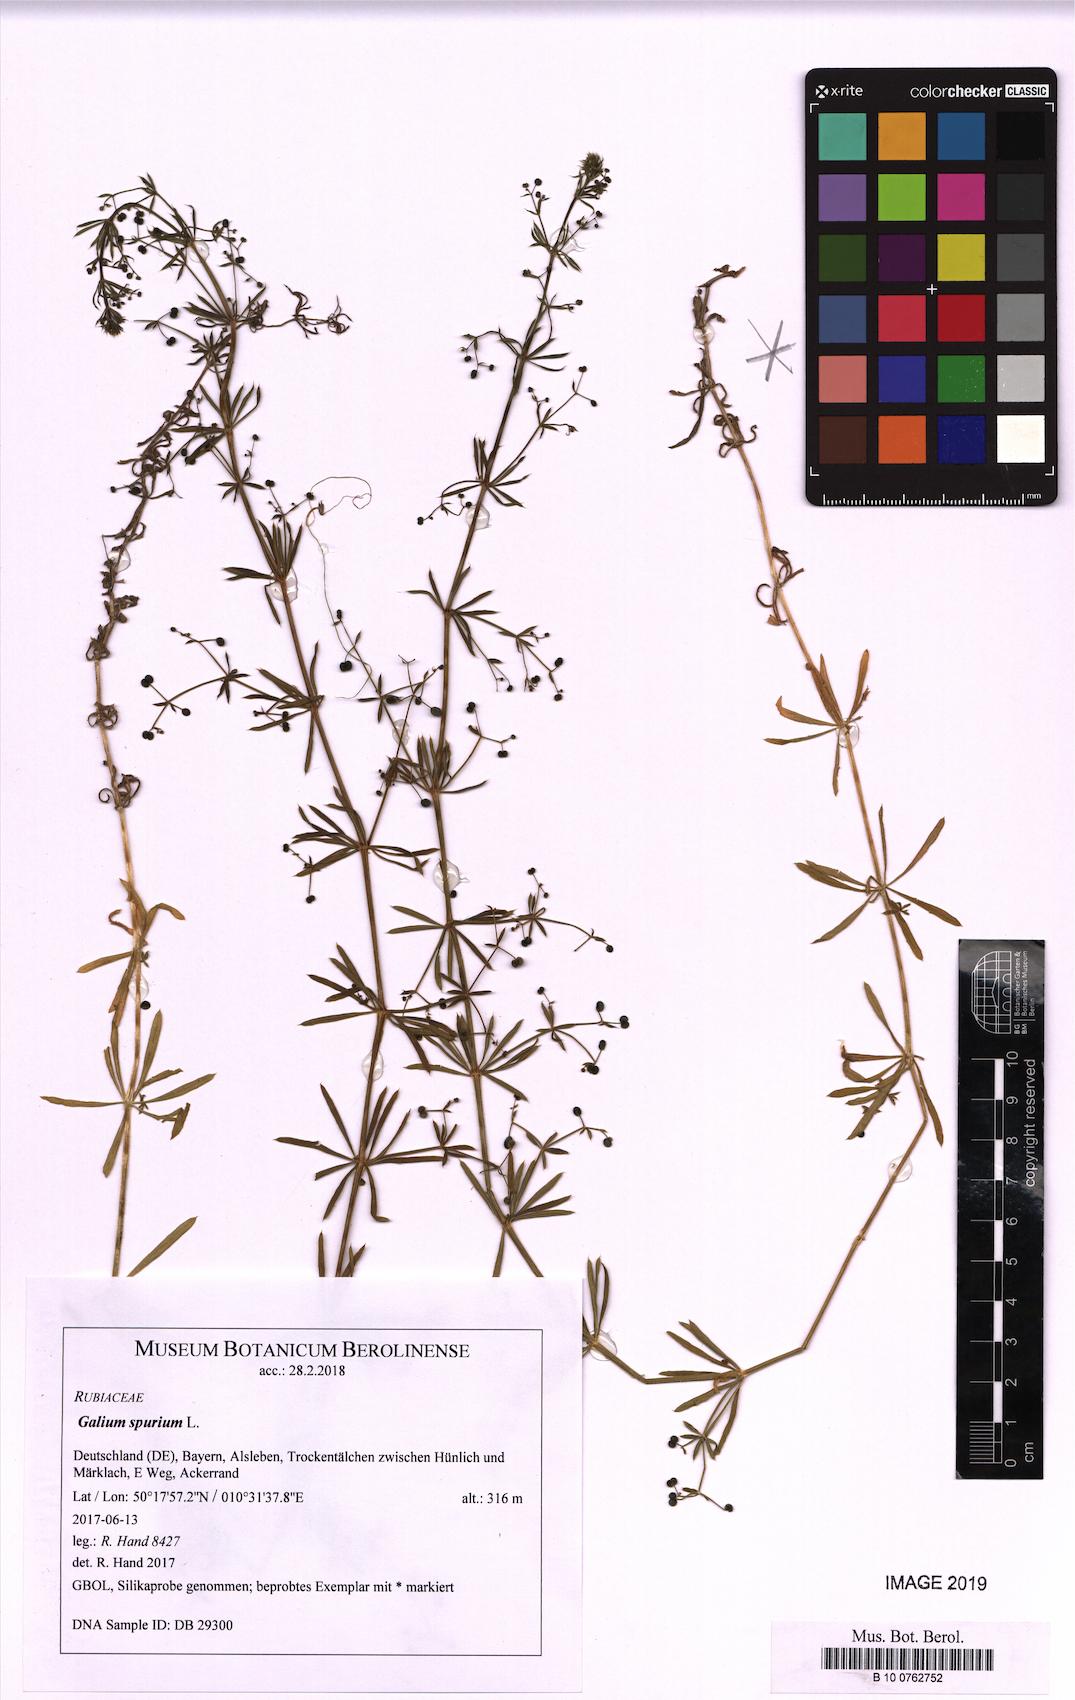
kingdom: Plantae
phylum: Tracheophyta
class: Magnoliopsida
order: Gentianales
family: Rubiaceae
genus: Galium
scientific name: Galium spurium
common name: False cleavers
